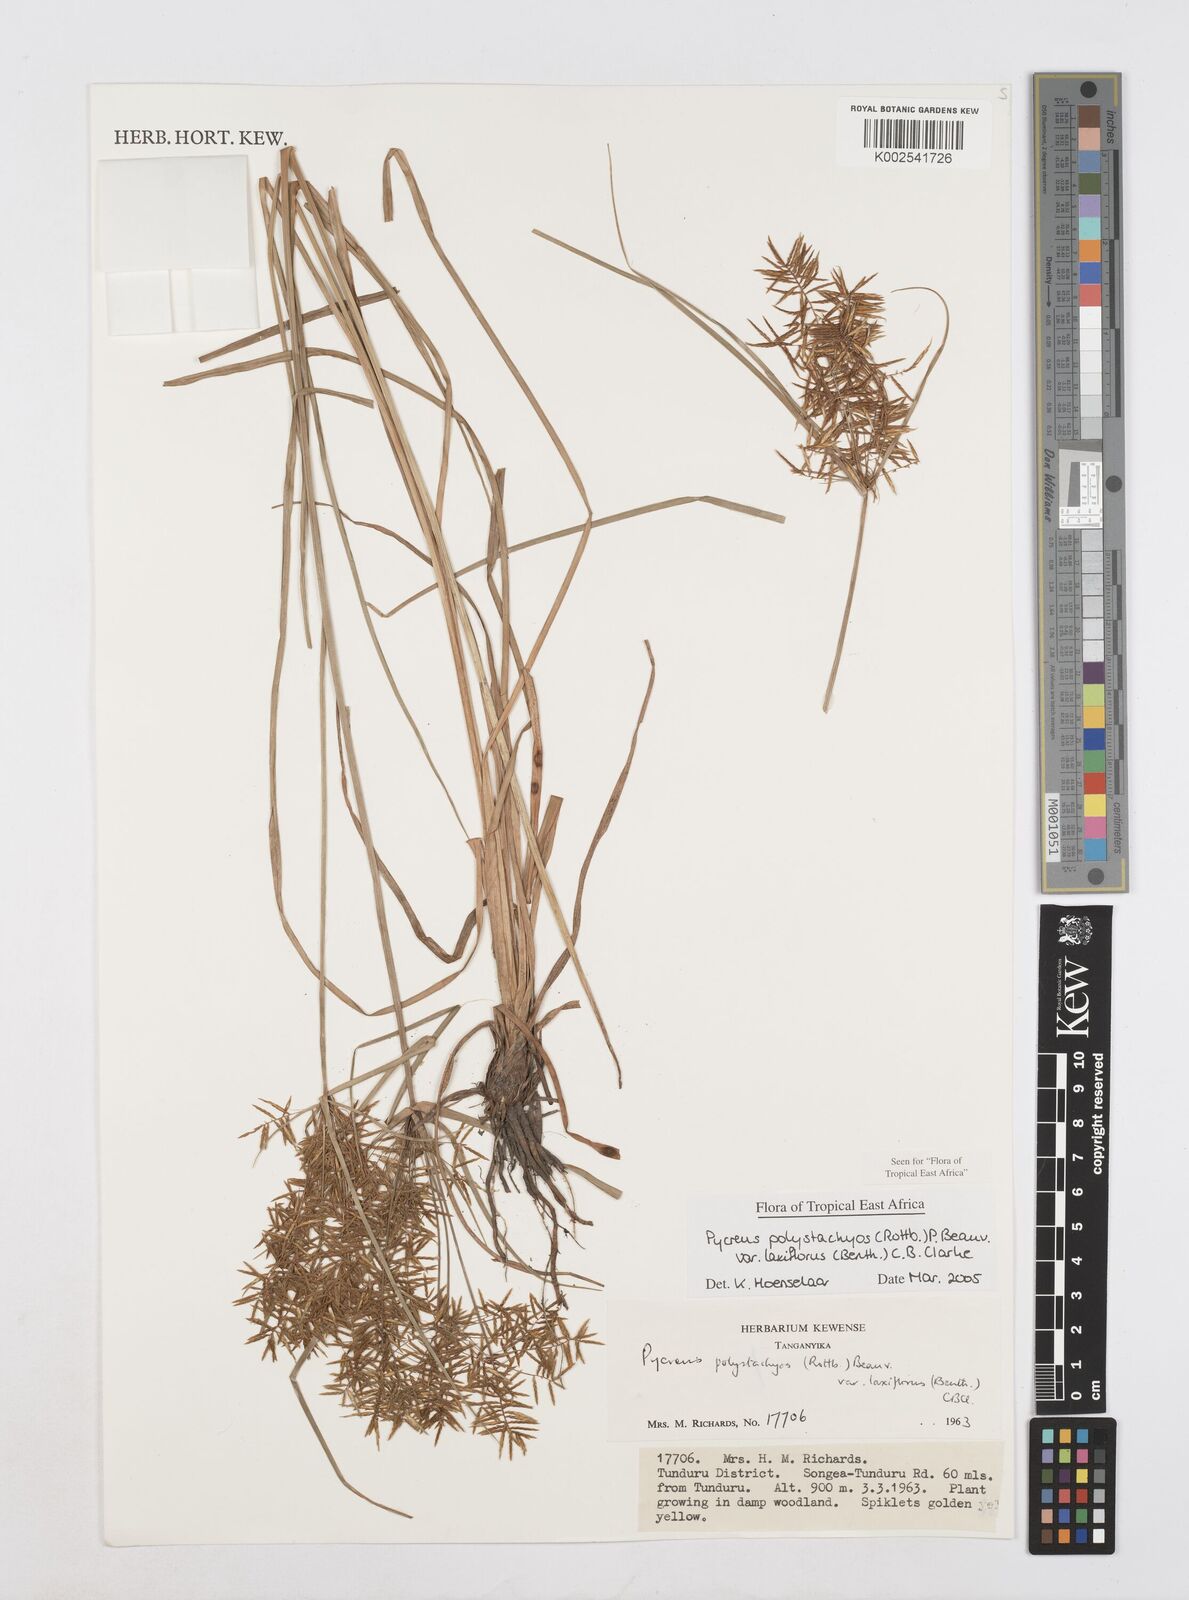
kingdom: Plantae
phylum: Tracheophyta
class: Liliopsida
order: Poales
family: Cyperaceae
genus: Cyperus
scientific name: Cyperus polystachyos
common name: Bunchy flat sedge
